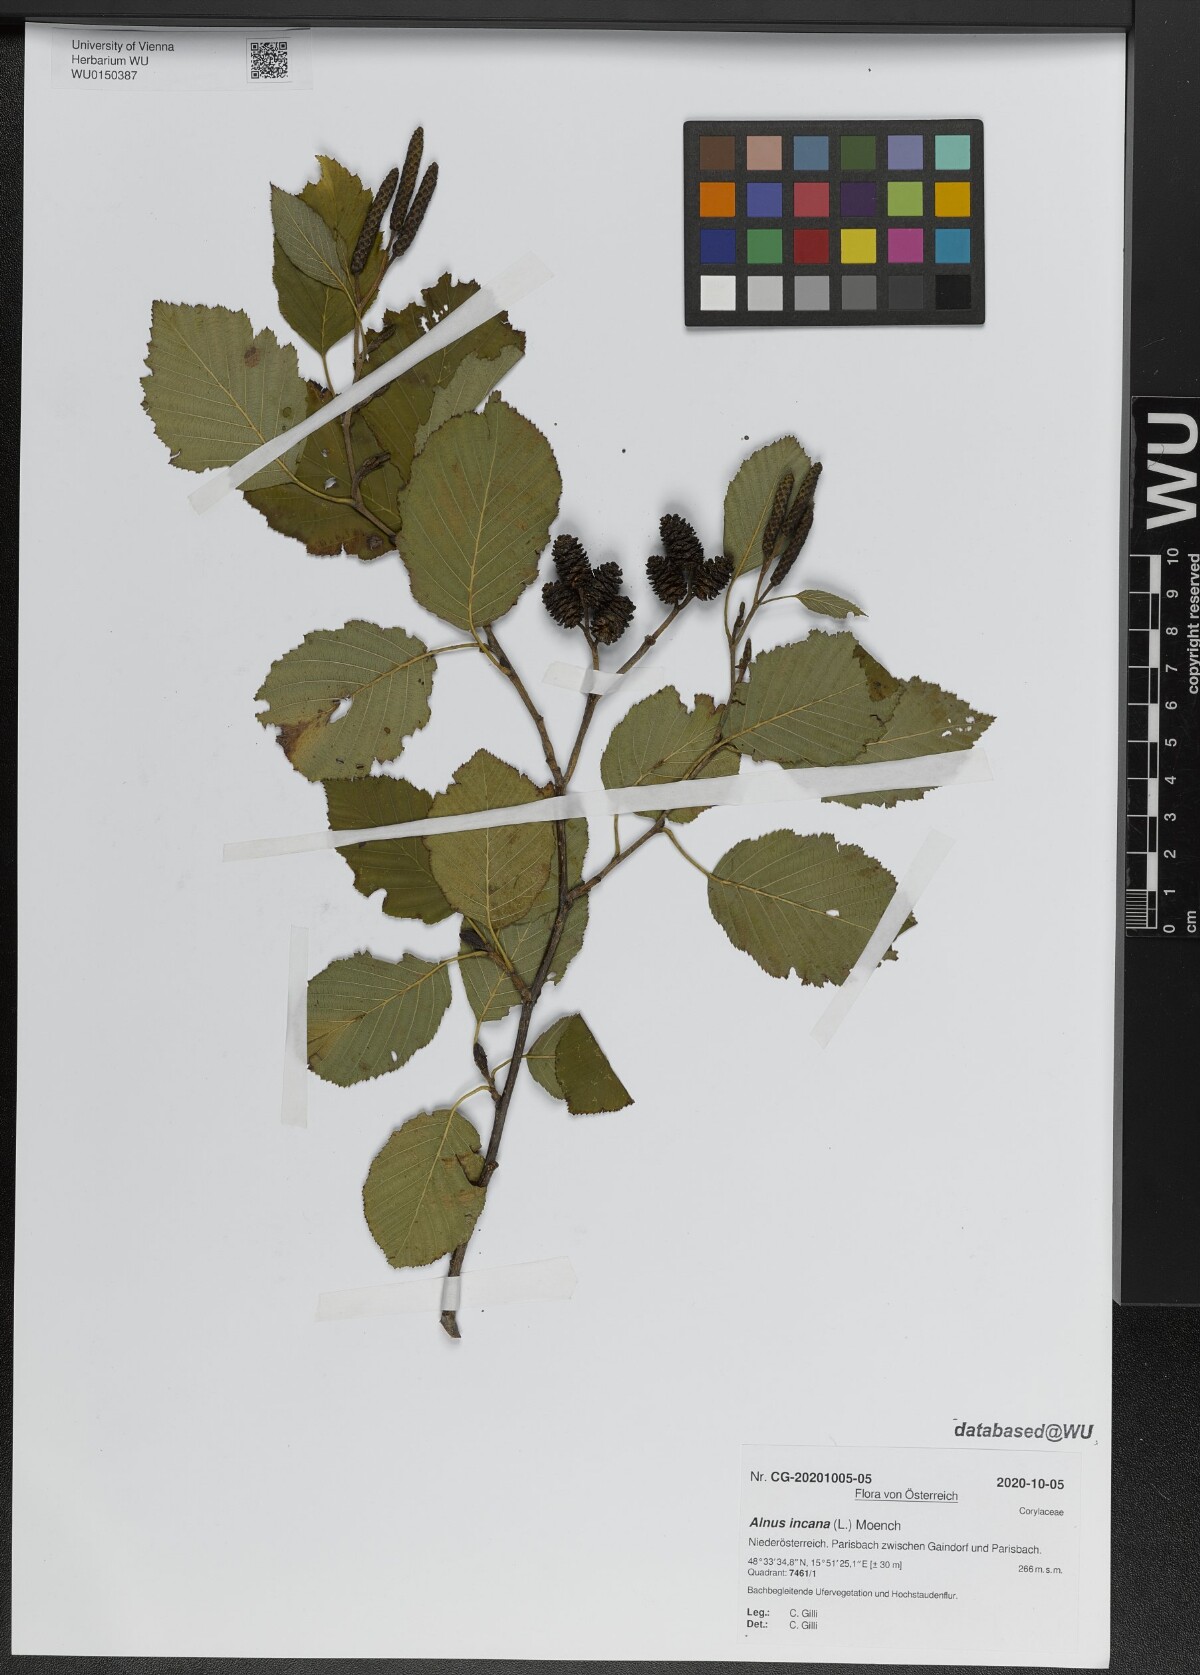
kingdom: Plantae
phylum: Tracheophyta
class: Magnoliopsida
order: Fagales
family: Betulaceae
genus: Alnus
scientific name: Alnus incana
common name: Grey alder
